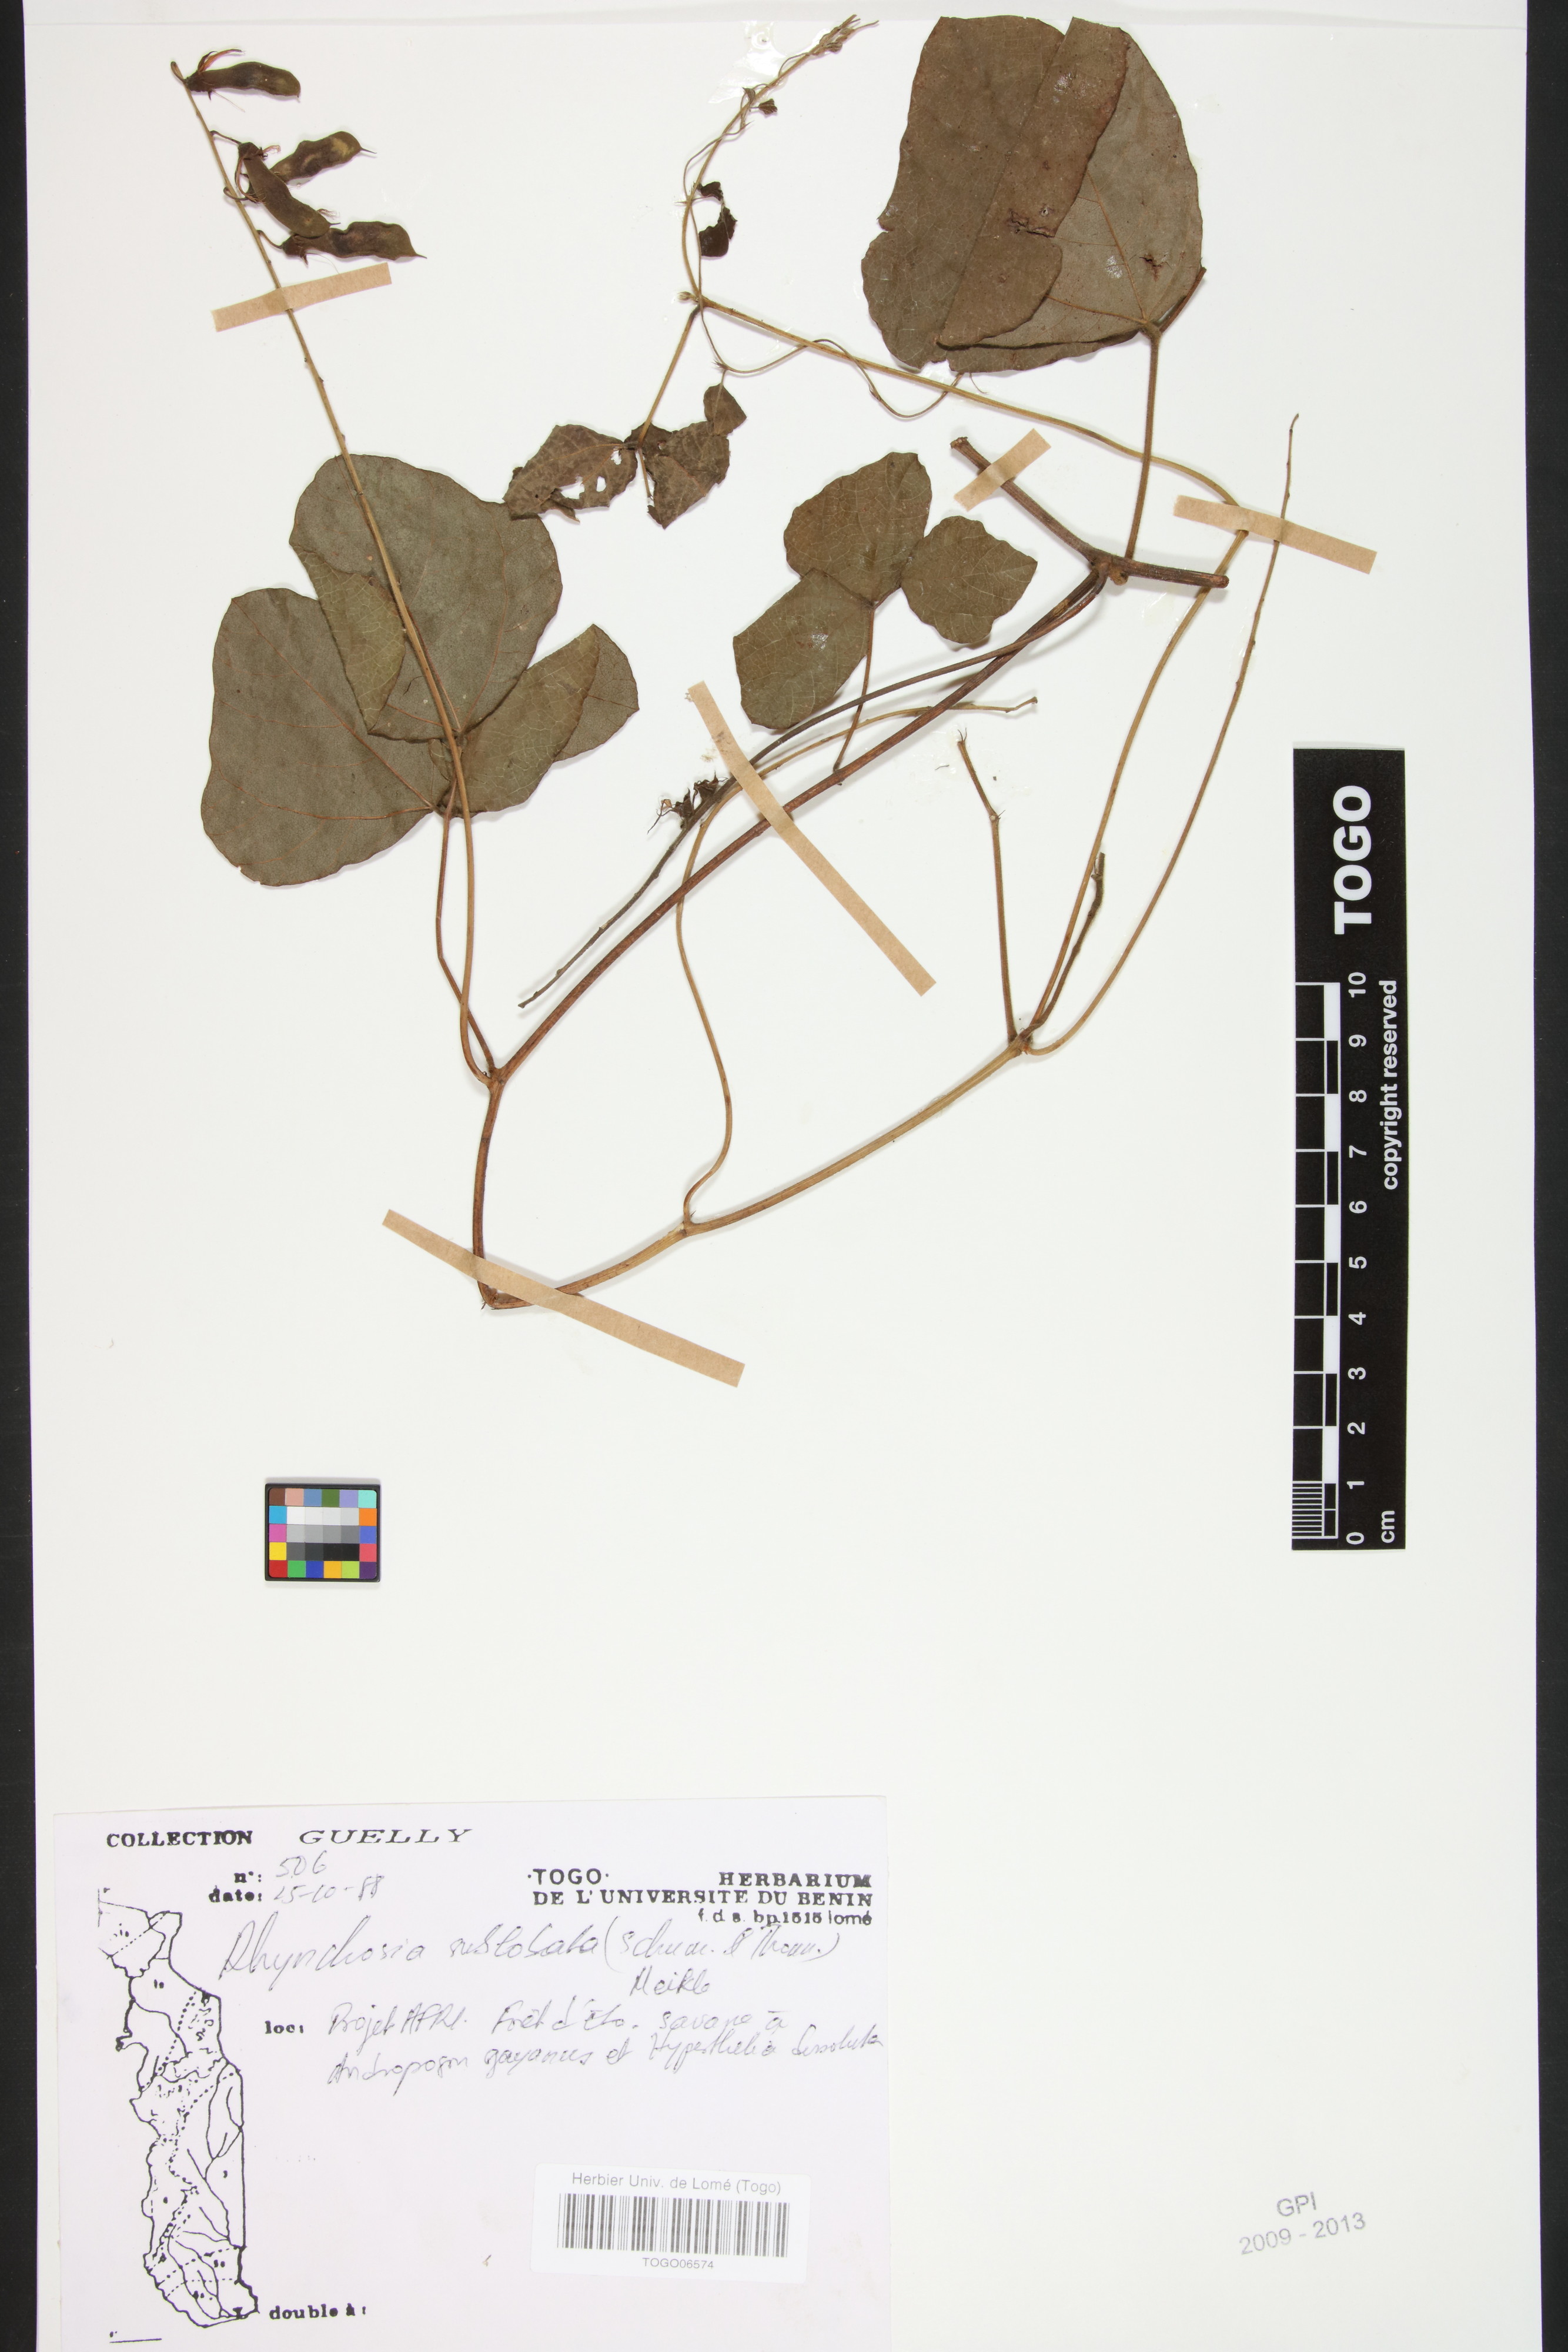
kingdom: Plantae
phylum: Tracheophyta
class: Magnoliopsida
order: Fabales
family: Fabaceae
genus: Rhynchosia
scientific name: Rhynchosia sublobata
